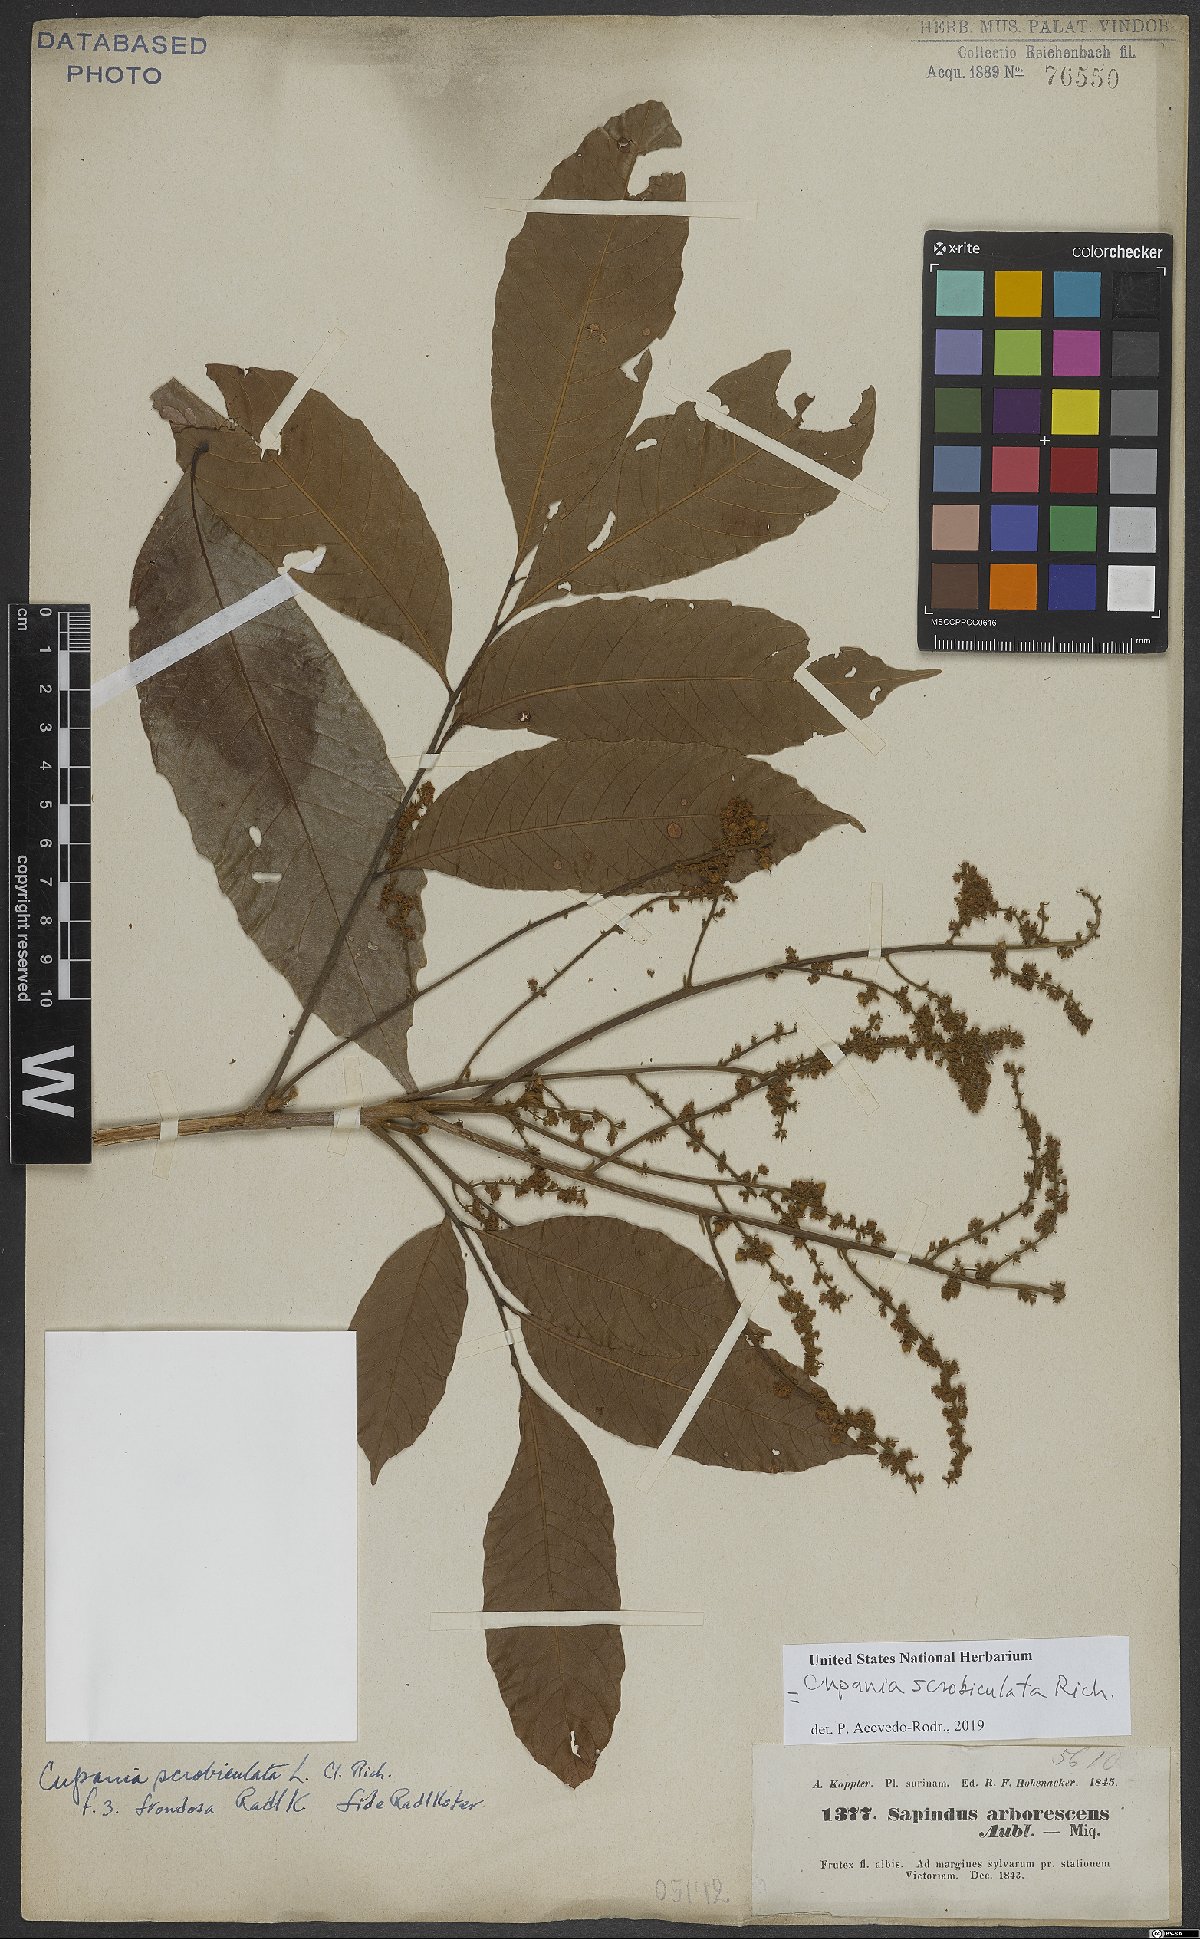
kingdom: Plantae
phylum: Tracheophyta
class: Magnoliopsida
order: Sapindales
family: Sapindaceae
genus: Cupania
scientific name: Cupania scrobiculata
